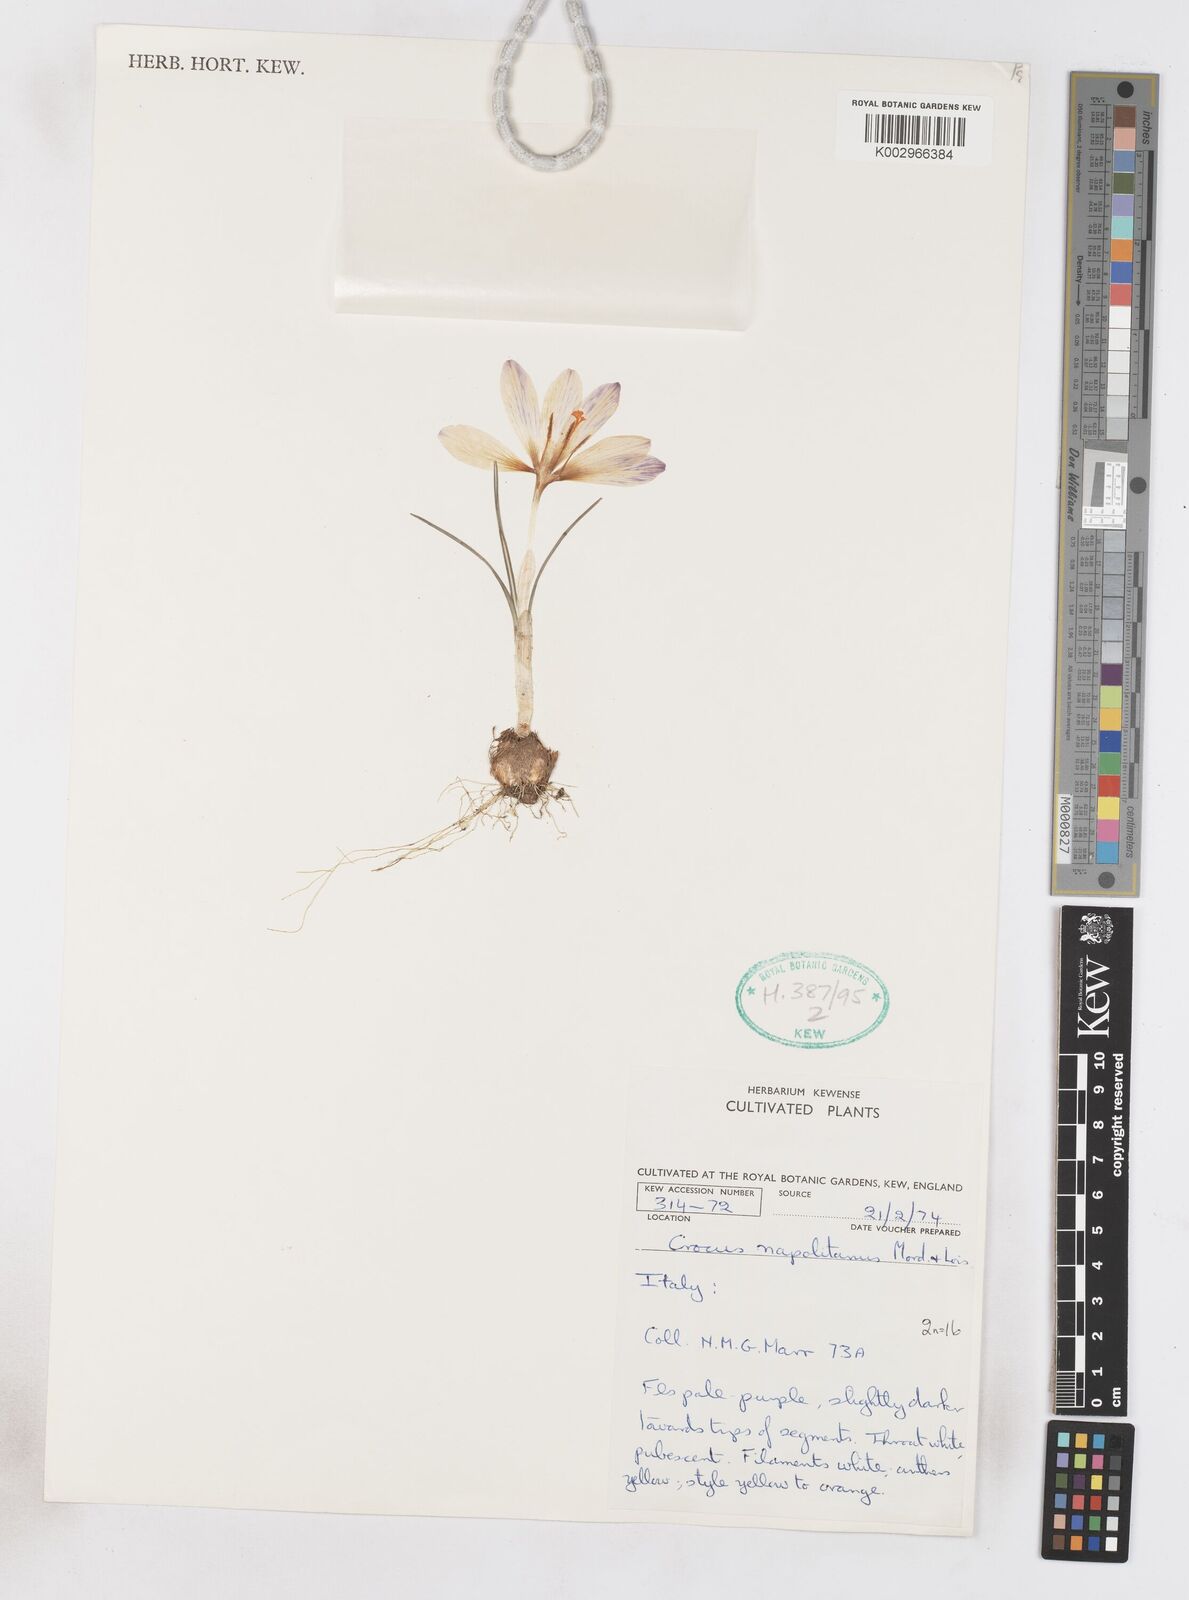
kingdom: Plantae
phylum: Tracheophyta
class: Liliopsida
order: Asparagales
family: Iridaceae
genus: Crocus
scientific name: Crocus vernus
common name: Spring crocus
